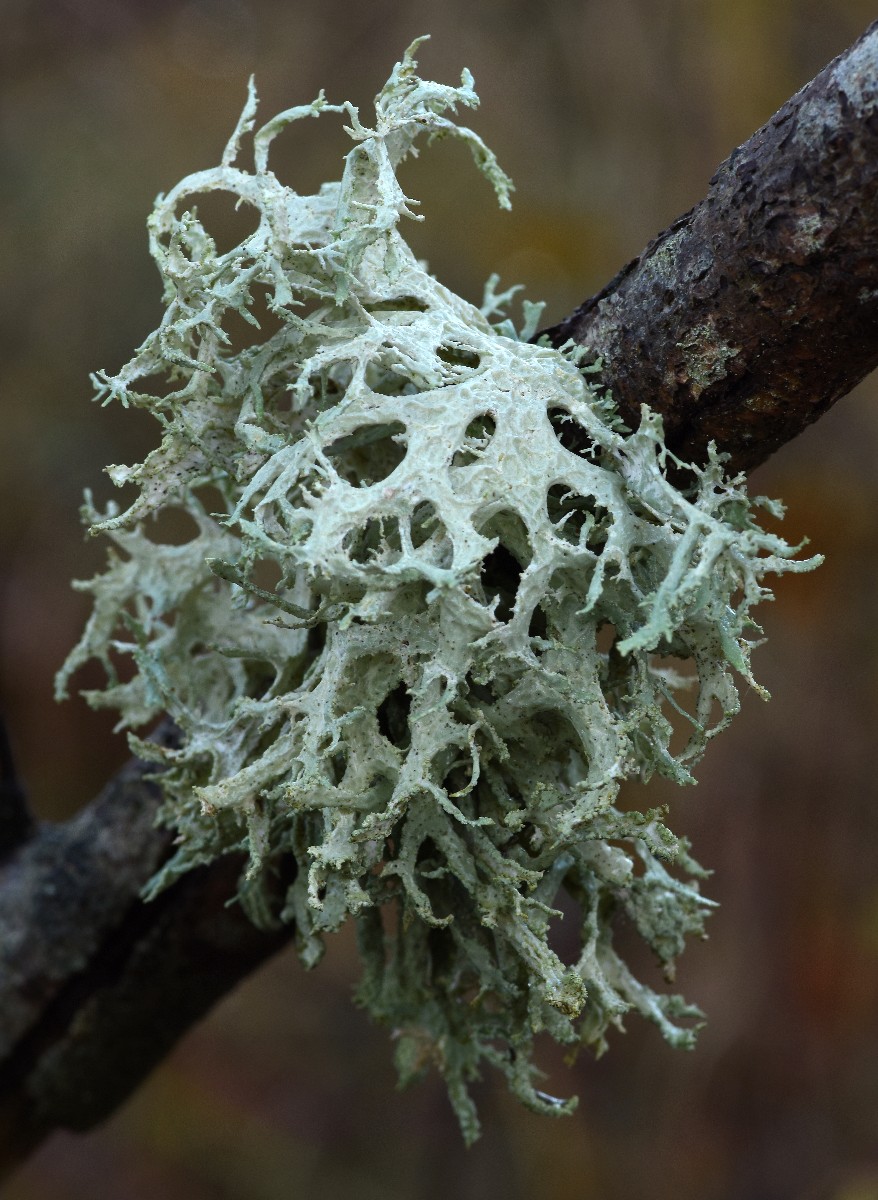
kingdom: Fungi
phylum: Ascomycota
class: Lecanoromycetes
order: Lecanorales
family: Parmeliaceae
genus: Evernia
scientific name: Evernia prunastri
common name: almindelig slåenlav
